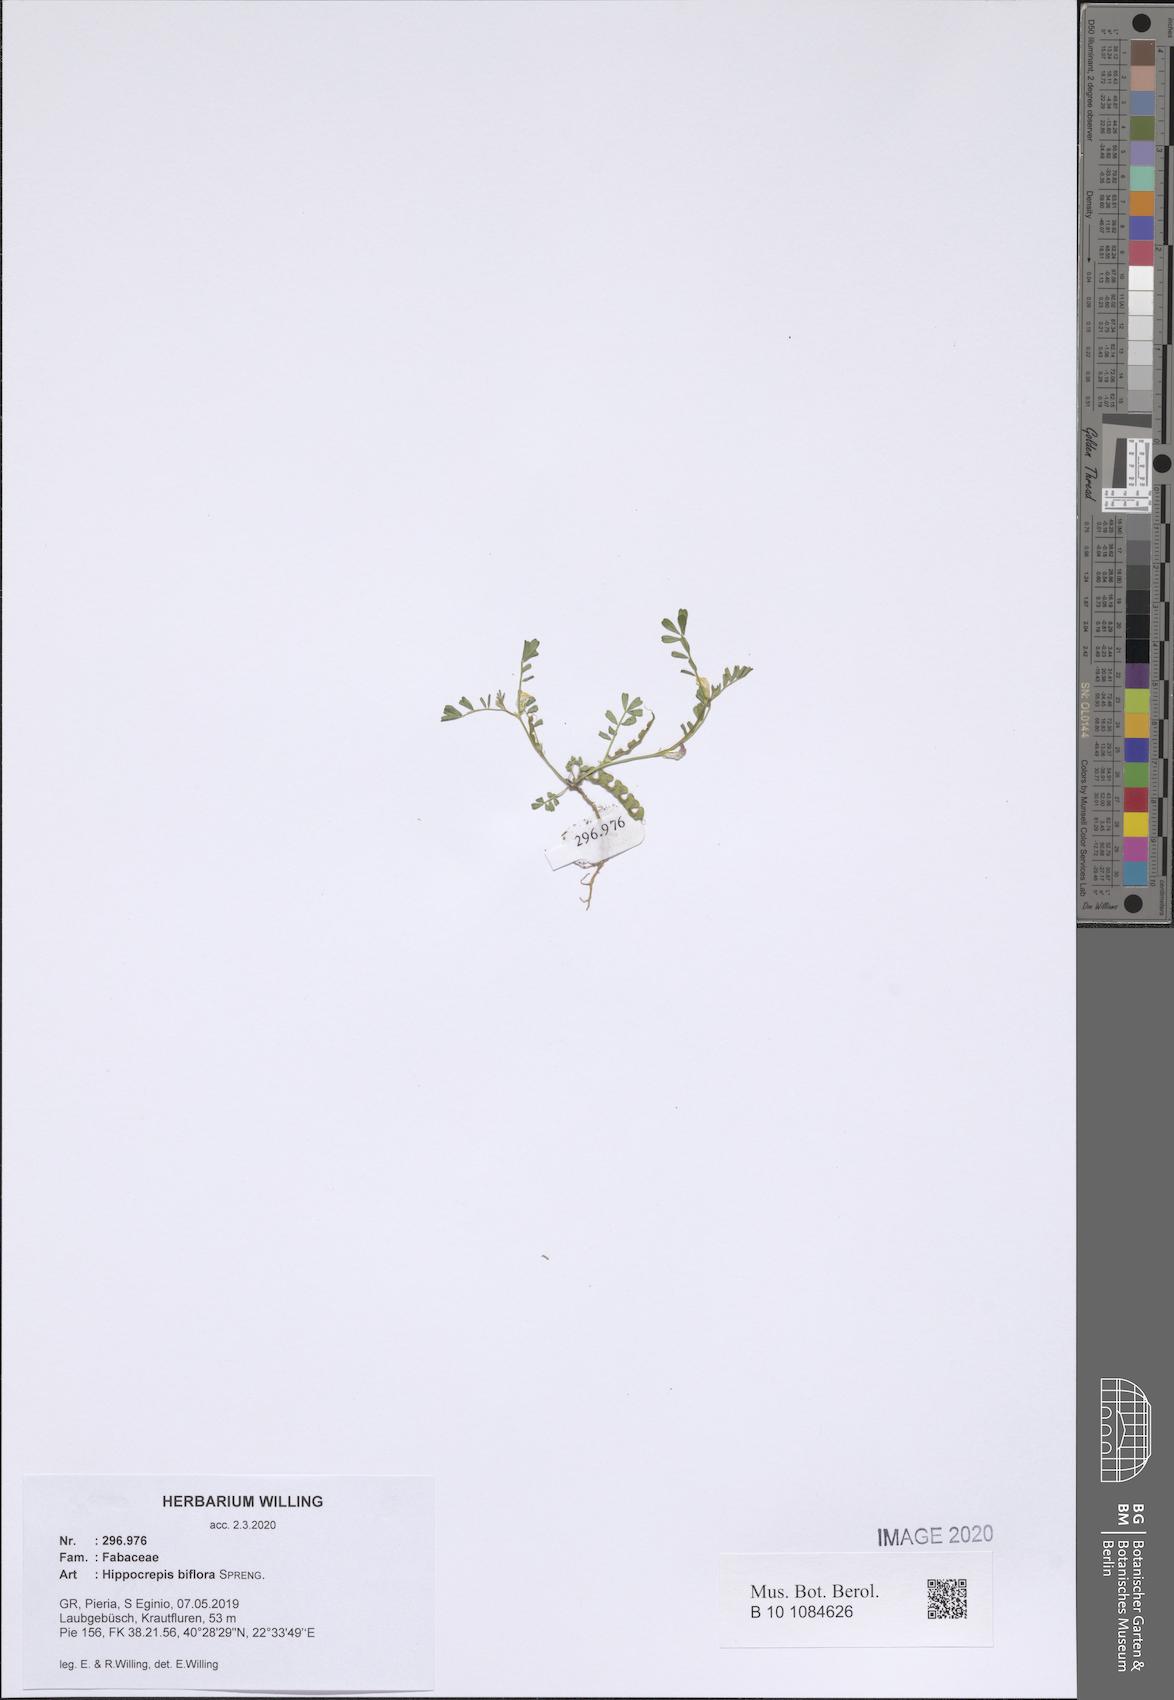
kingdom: Plantae
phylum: Tracheophyta
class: Magnoliopsida
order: Fabales
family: Fabaceae
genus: Hippocrepis
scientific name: Hippocrepis biflora
